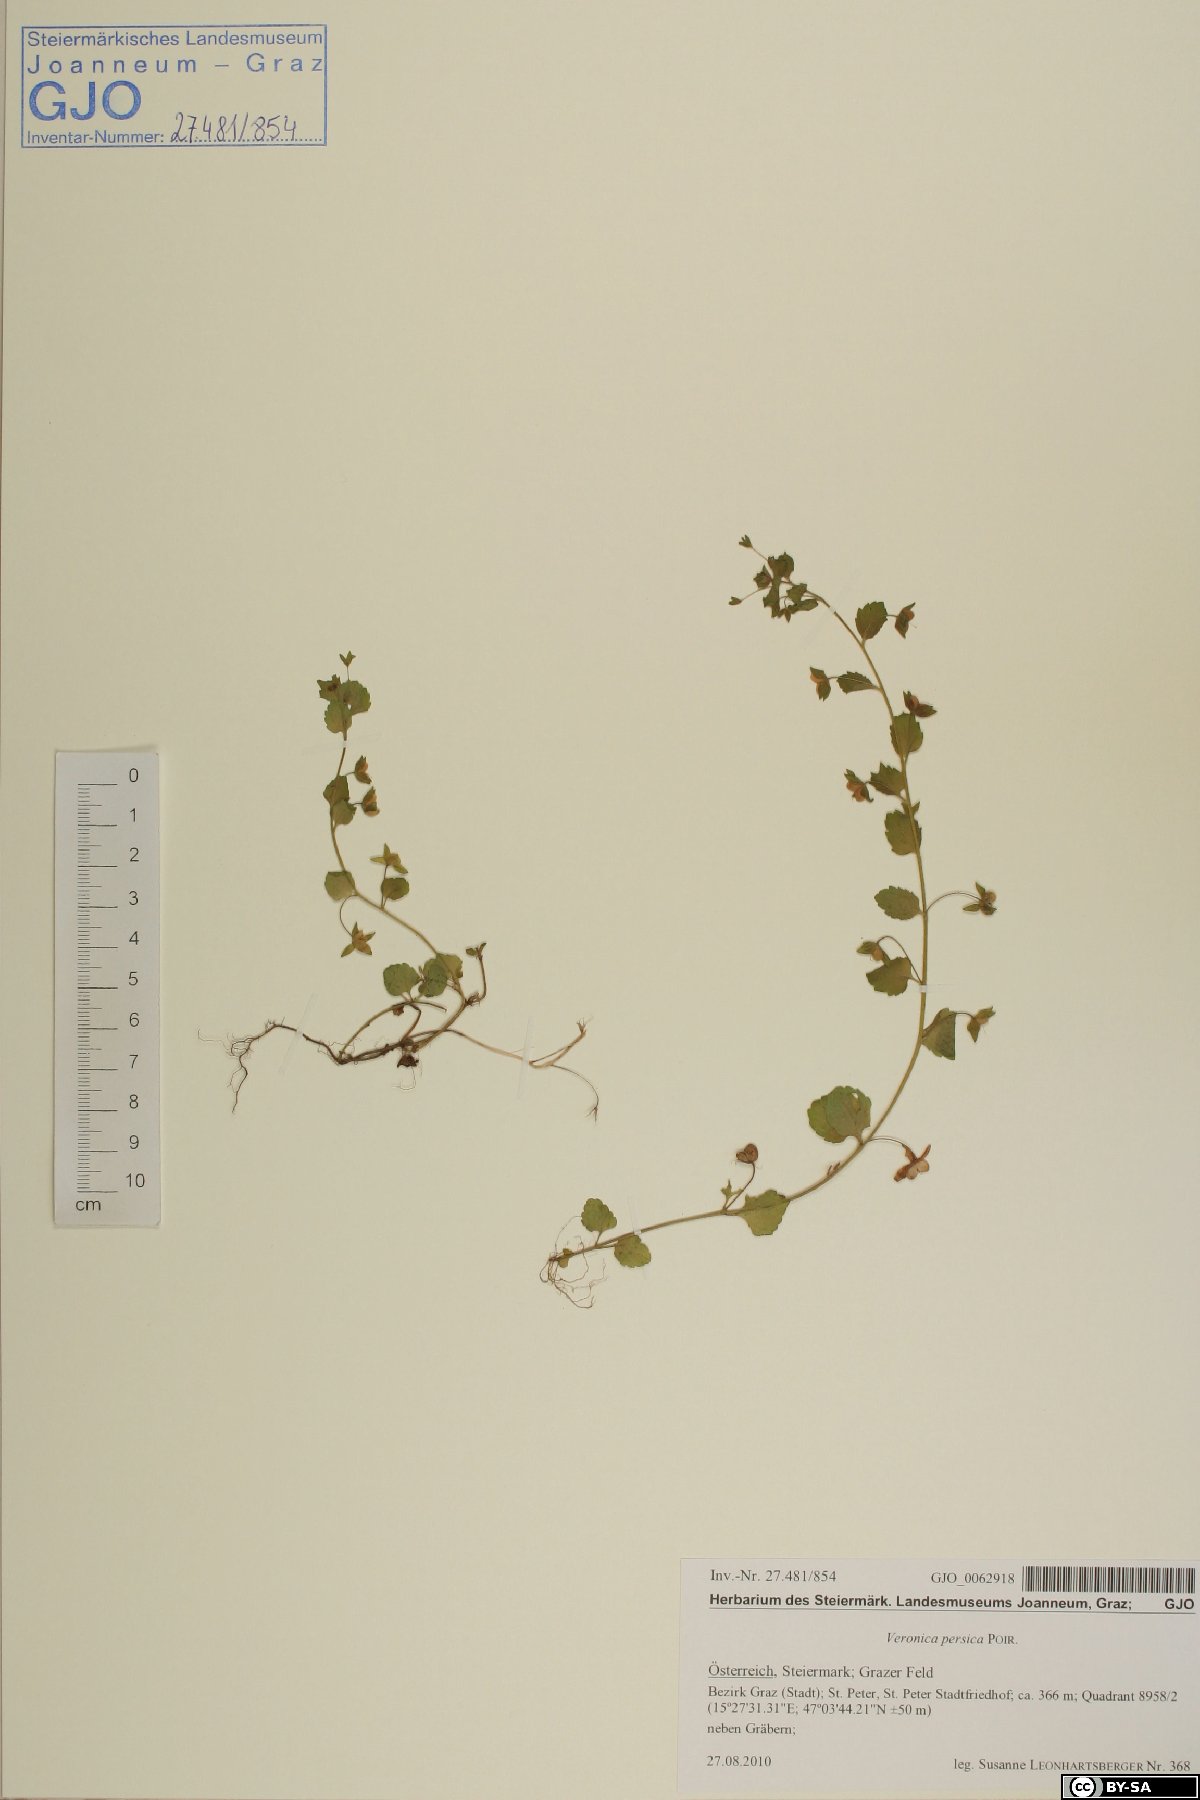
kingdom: Plantae
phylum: Tracheophyta
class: Magnoliopsida
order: Lamiales
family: Plantaginaceae
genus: Veronica
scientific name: Veronica persica
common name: Common field-speedwell
